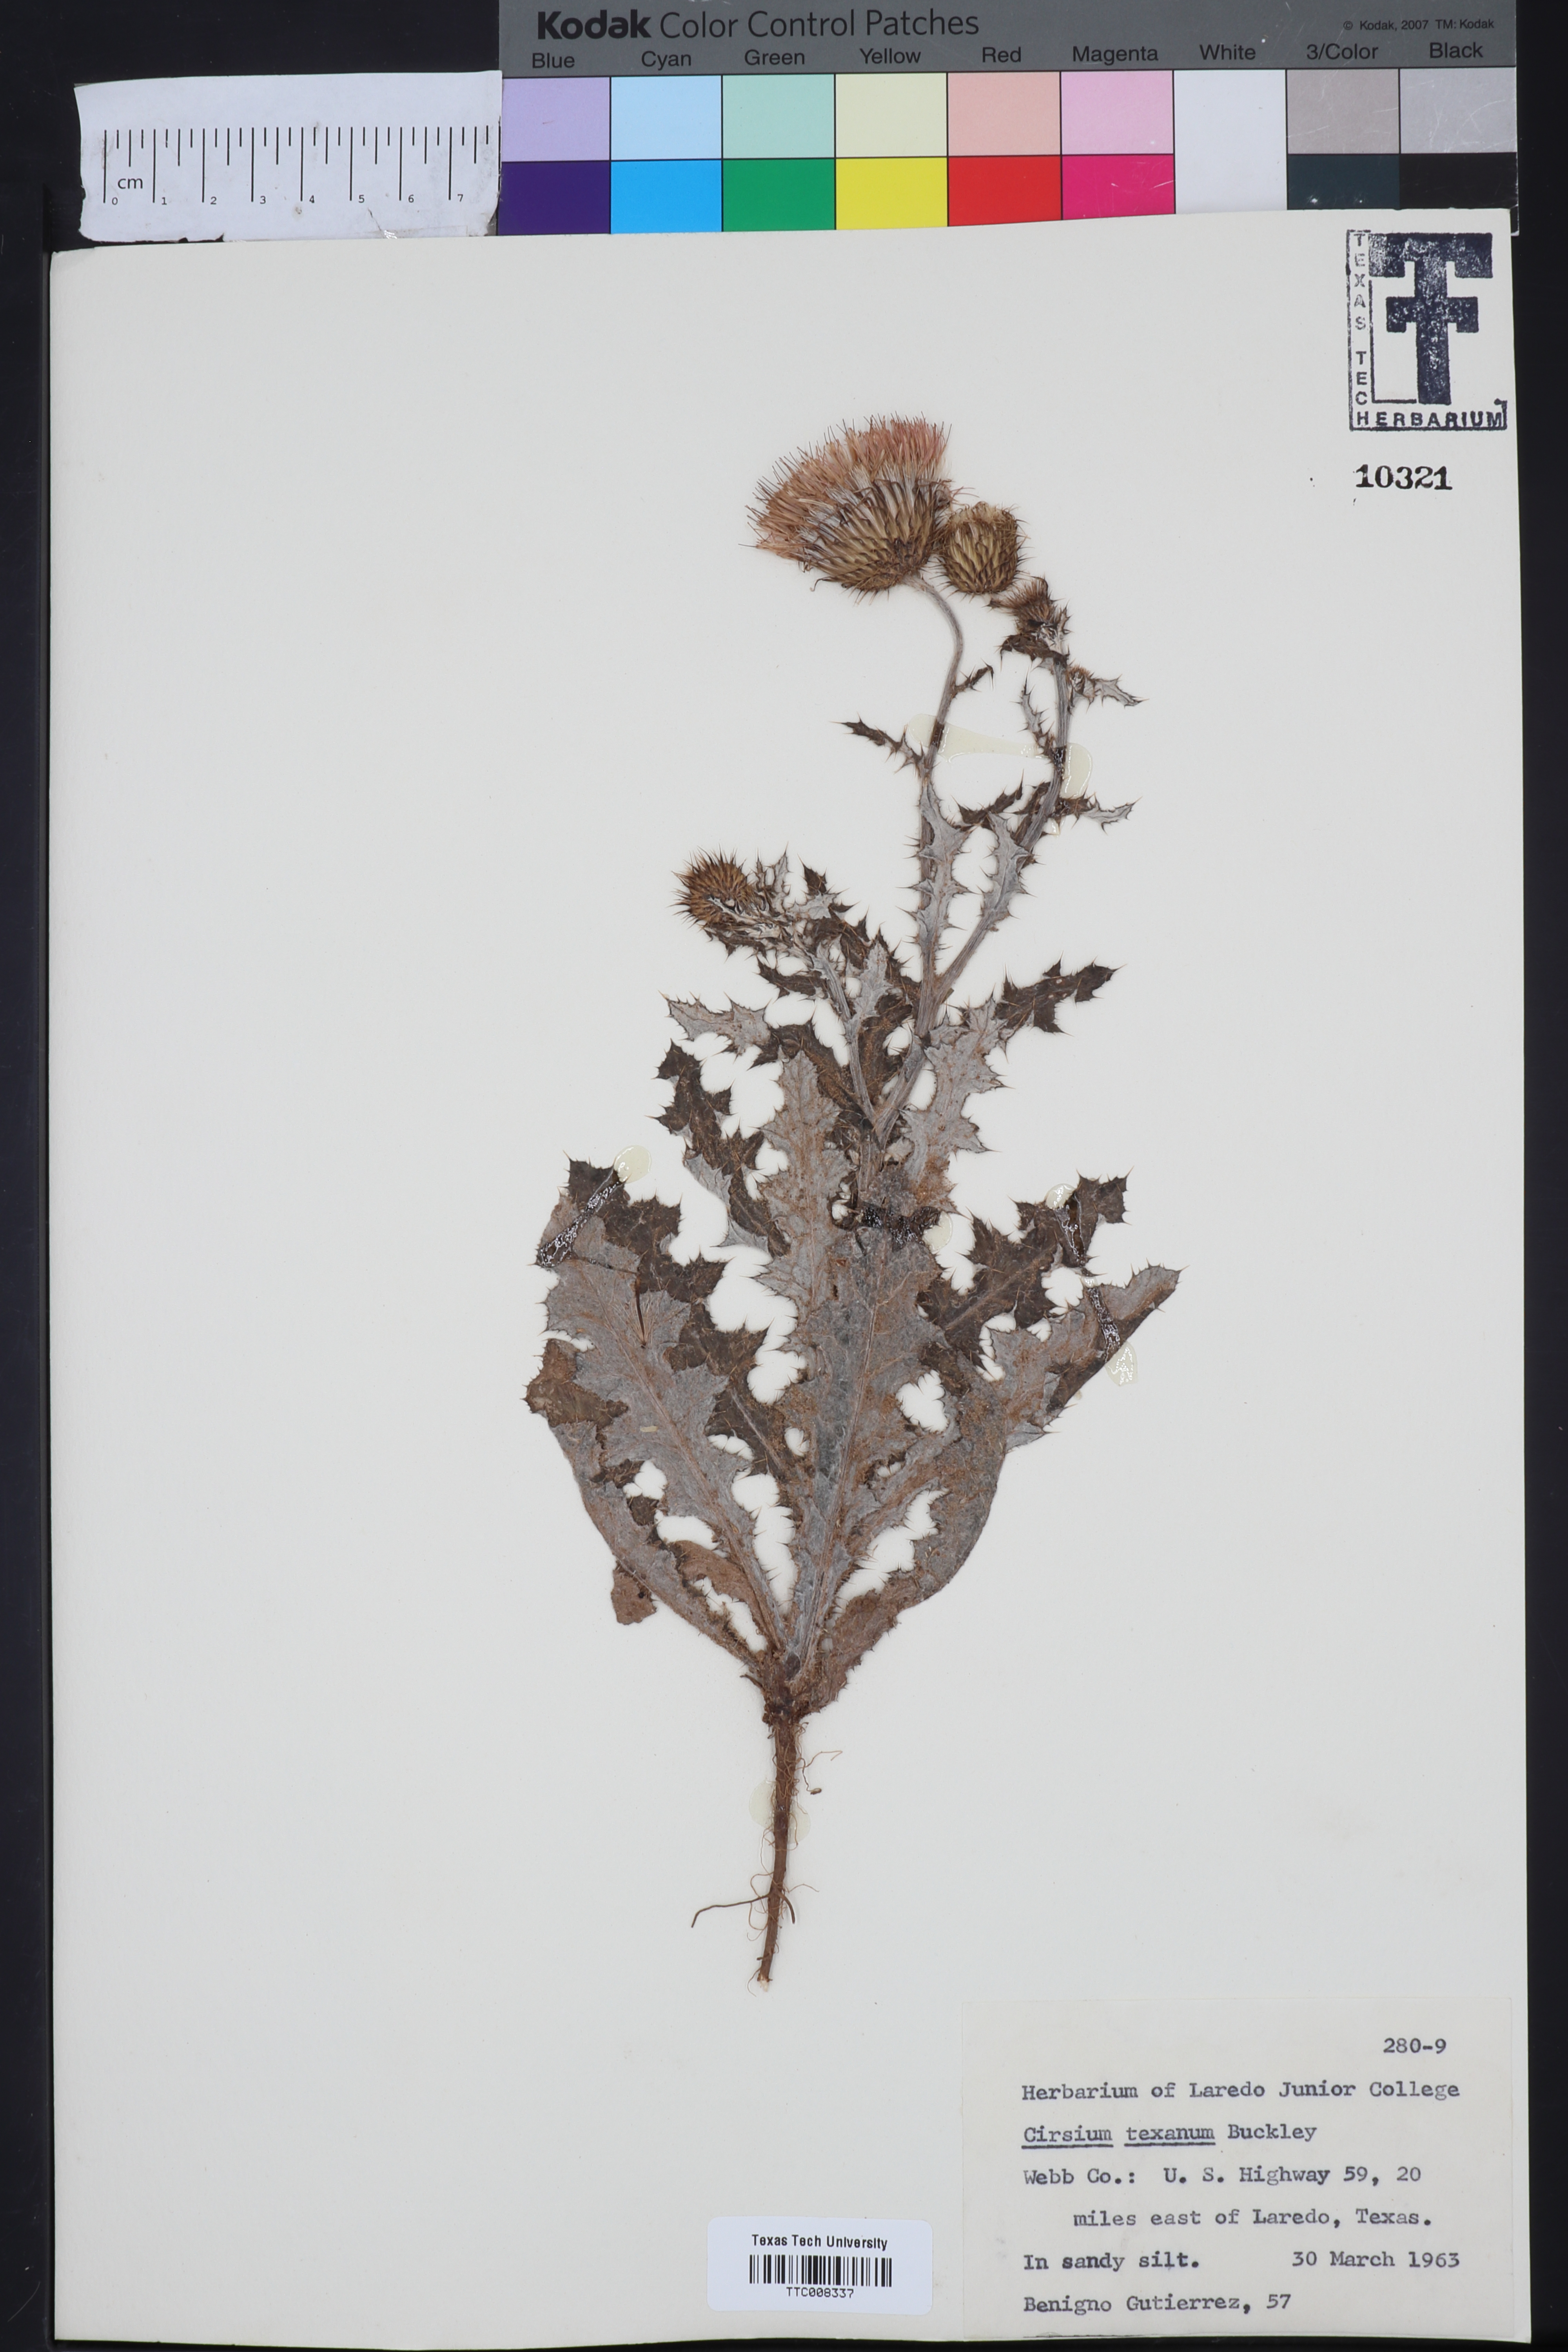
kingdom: Plantae
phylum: Tracheophyta
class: Magnoliopsida
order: Asterales
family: Asteraceae
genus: Cirsium
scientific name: Cirsium texanum
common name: Texas purple thistle
